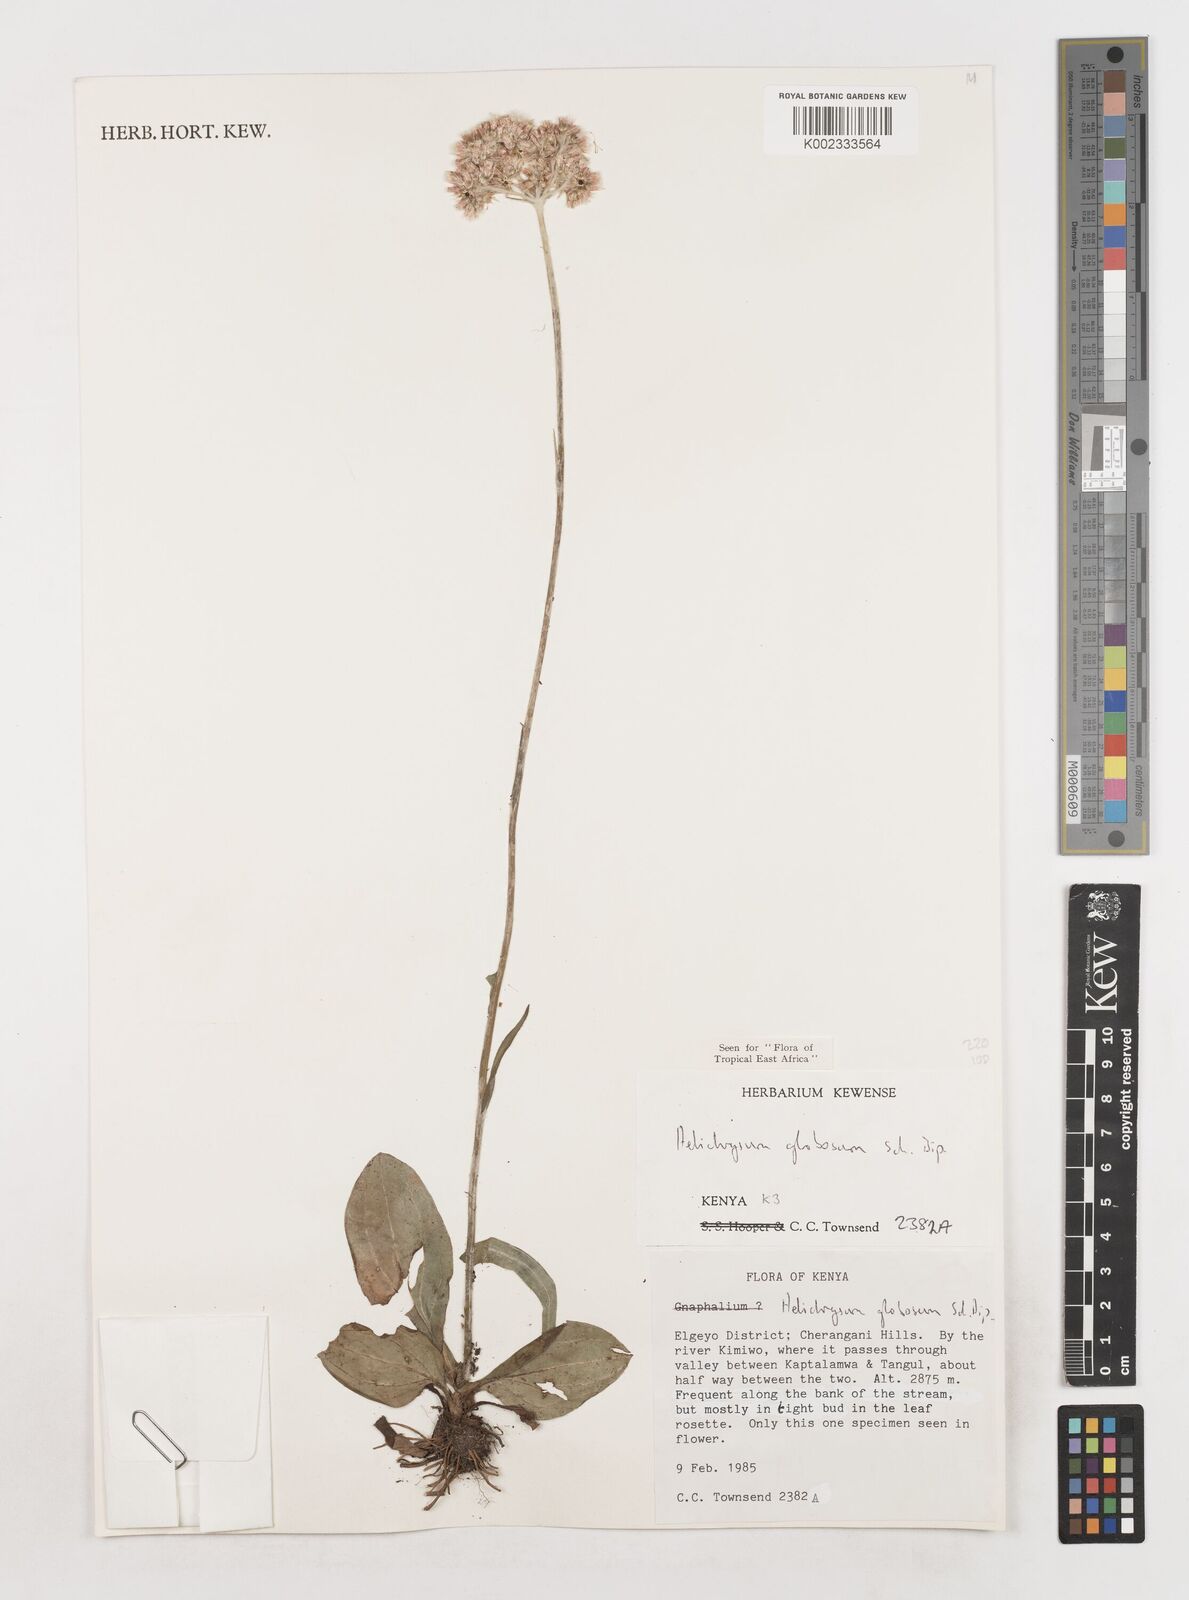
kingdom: Plantae
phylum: Tracheophyta
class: Magnoliopsida
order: Asterales
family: Asteraceae
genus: Helichrysum
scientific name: Helichrysum globosum
